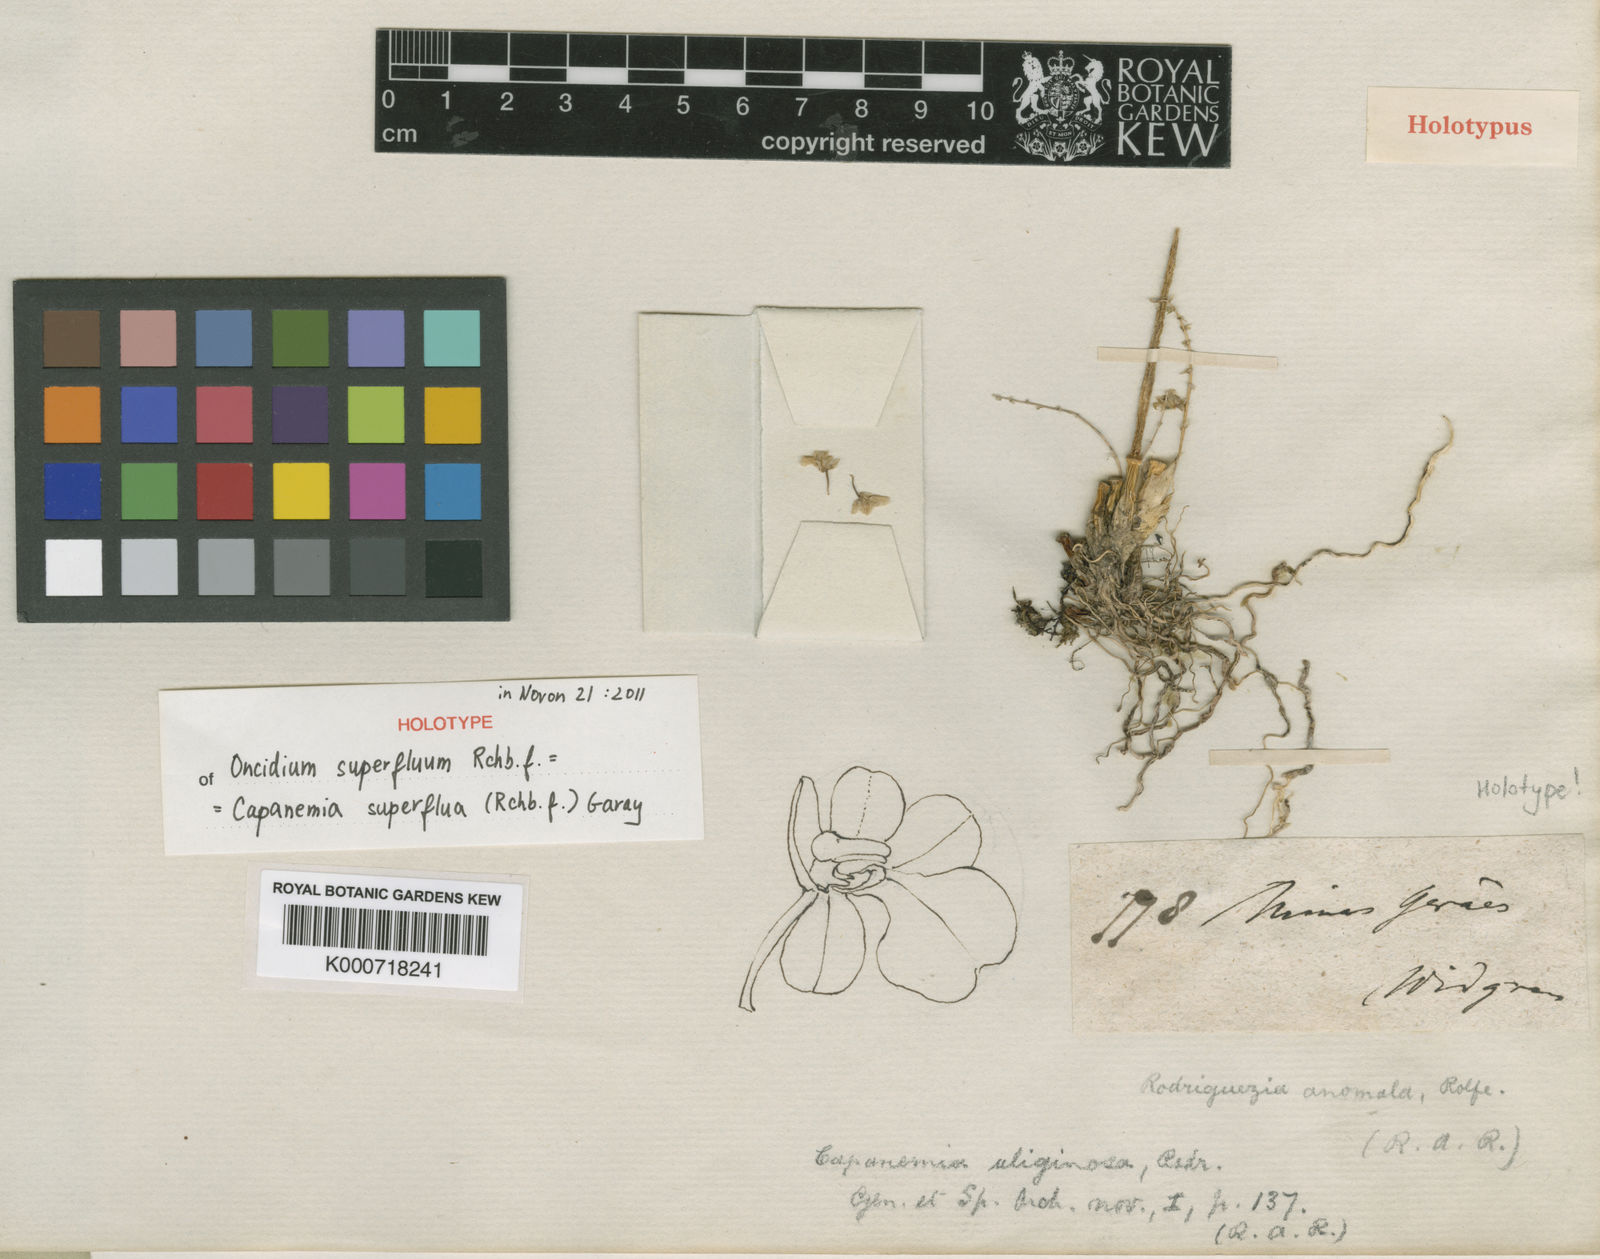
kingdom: Plantae
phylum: Tracheophyta
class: Liliopsida
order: Asparagales
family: Orchidaceae
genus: Capanemia
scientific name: Capanemia superflua
